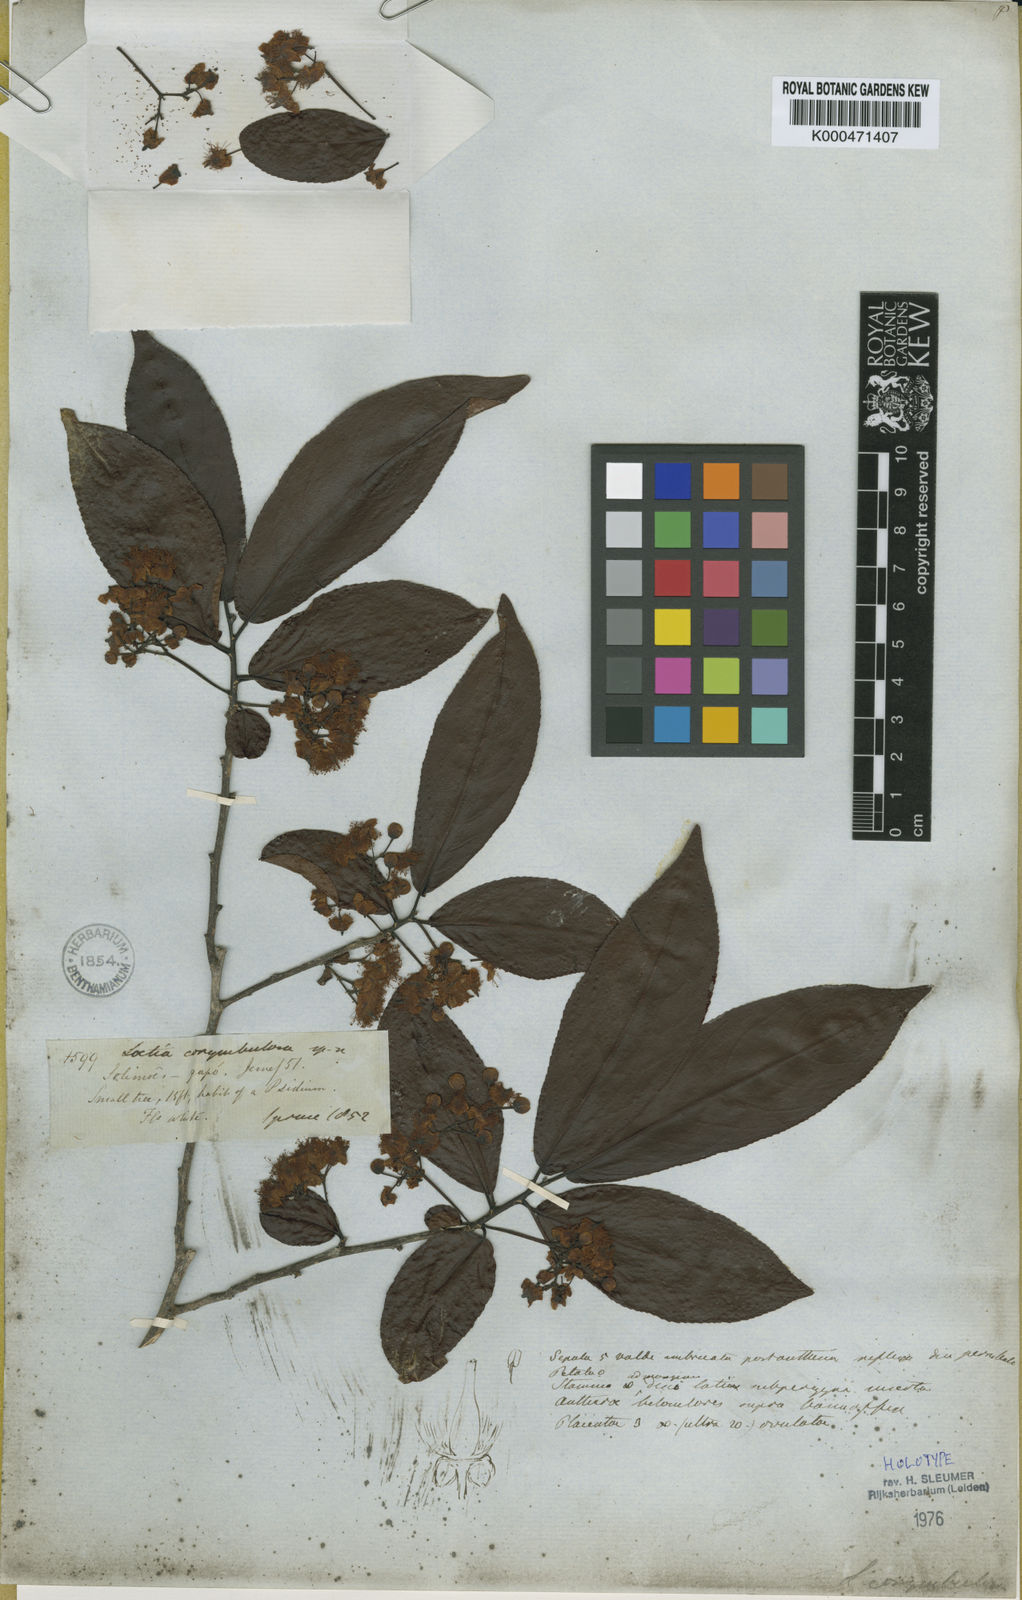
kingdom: Plantae
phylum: Tracheophyta
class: Magnoliopsida
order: Malpighiales
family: Salicaceae
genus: Casearia
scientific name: Casearia corymbulosa
